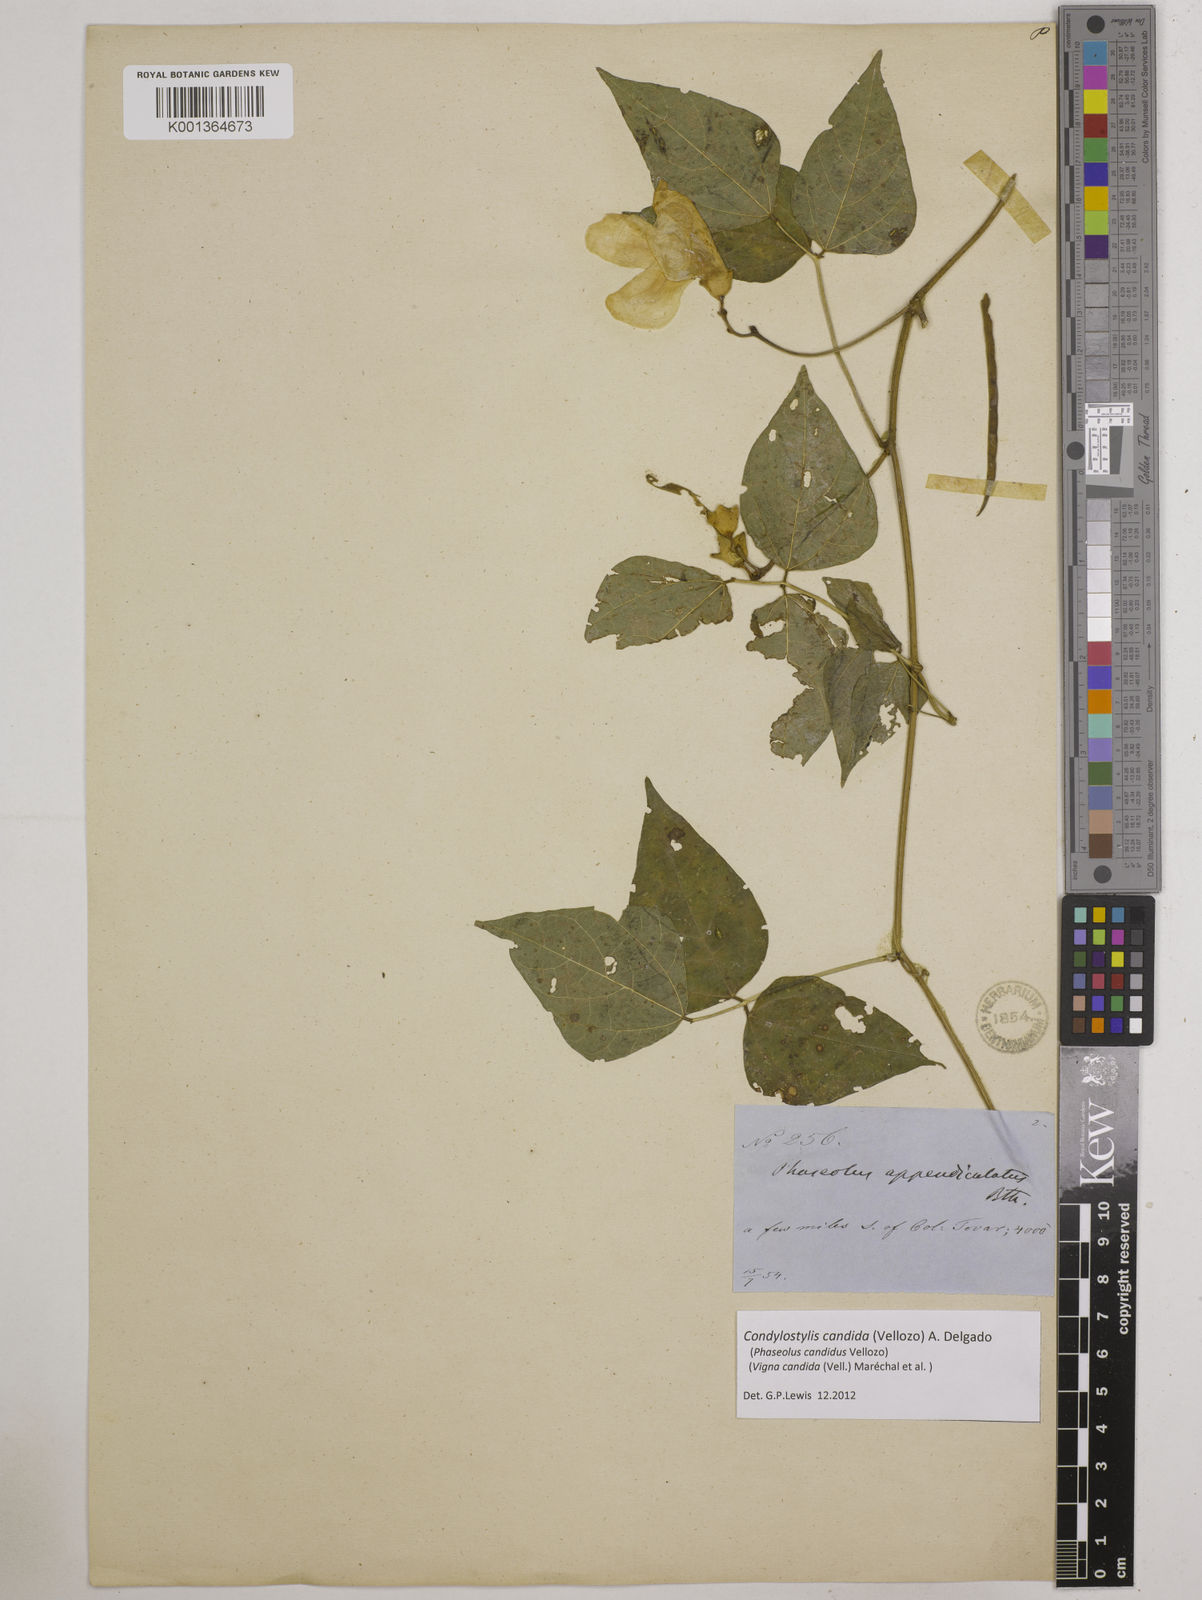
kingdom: Plantae
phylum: Tracheophyta
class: Magnoliopsida
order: Fabales
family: Fabaceae
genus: Condylostylis
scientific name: Condylostylis candida
